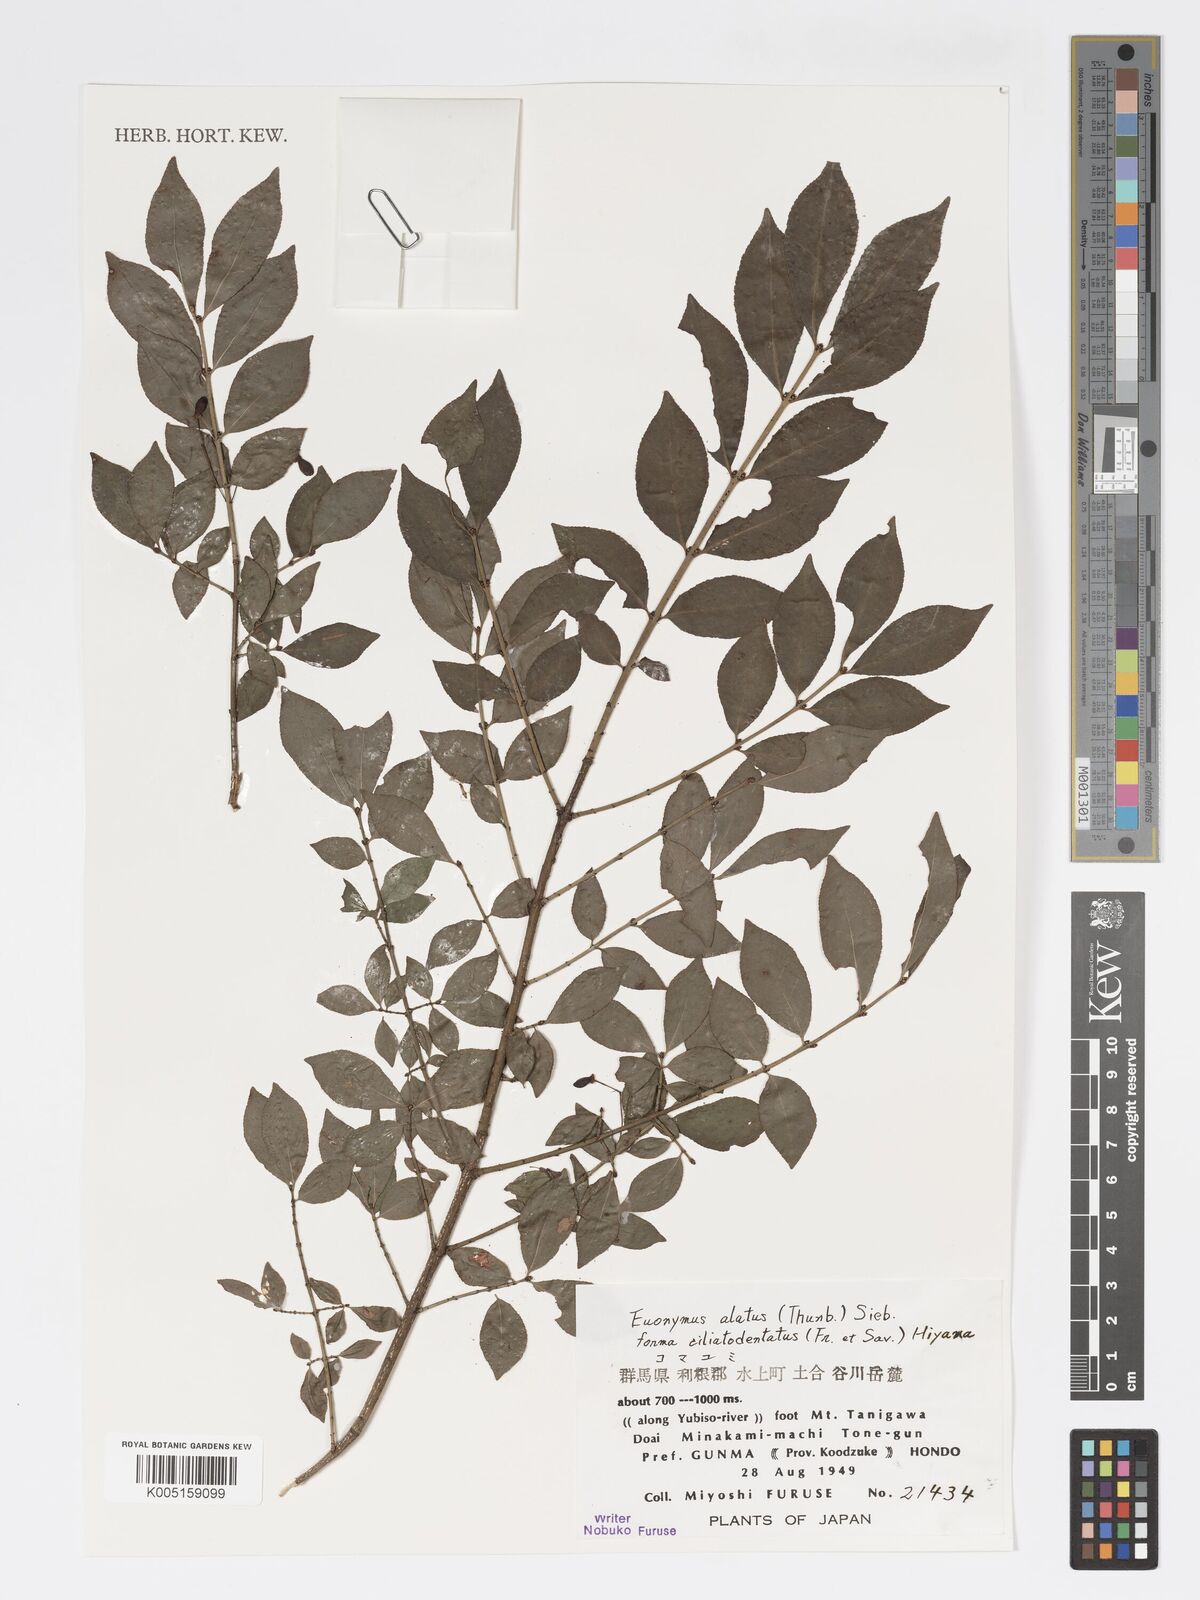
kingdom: Plantae
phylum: Tracheophyta
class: Magnoliopsida
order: Celastrales
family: Celastraceae
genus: Euonymus
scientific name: Euonymus
